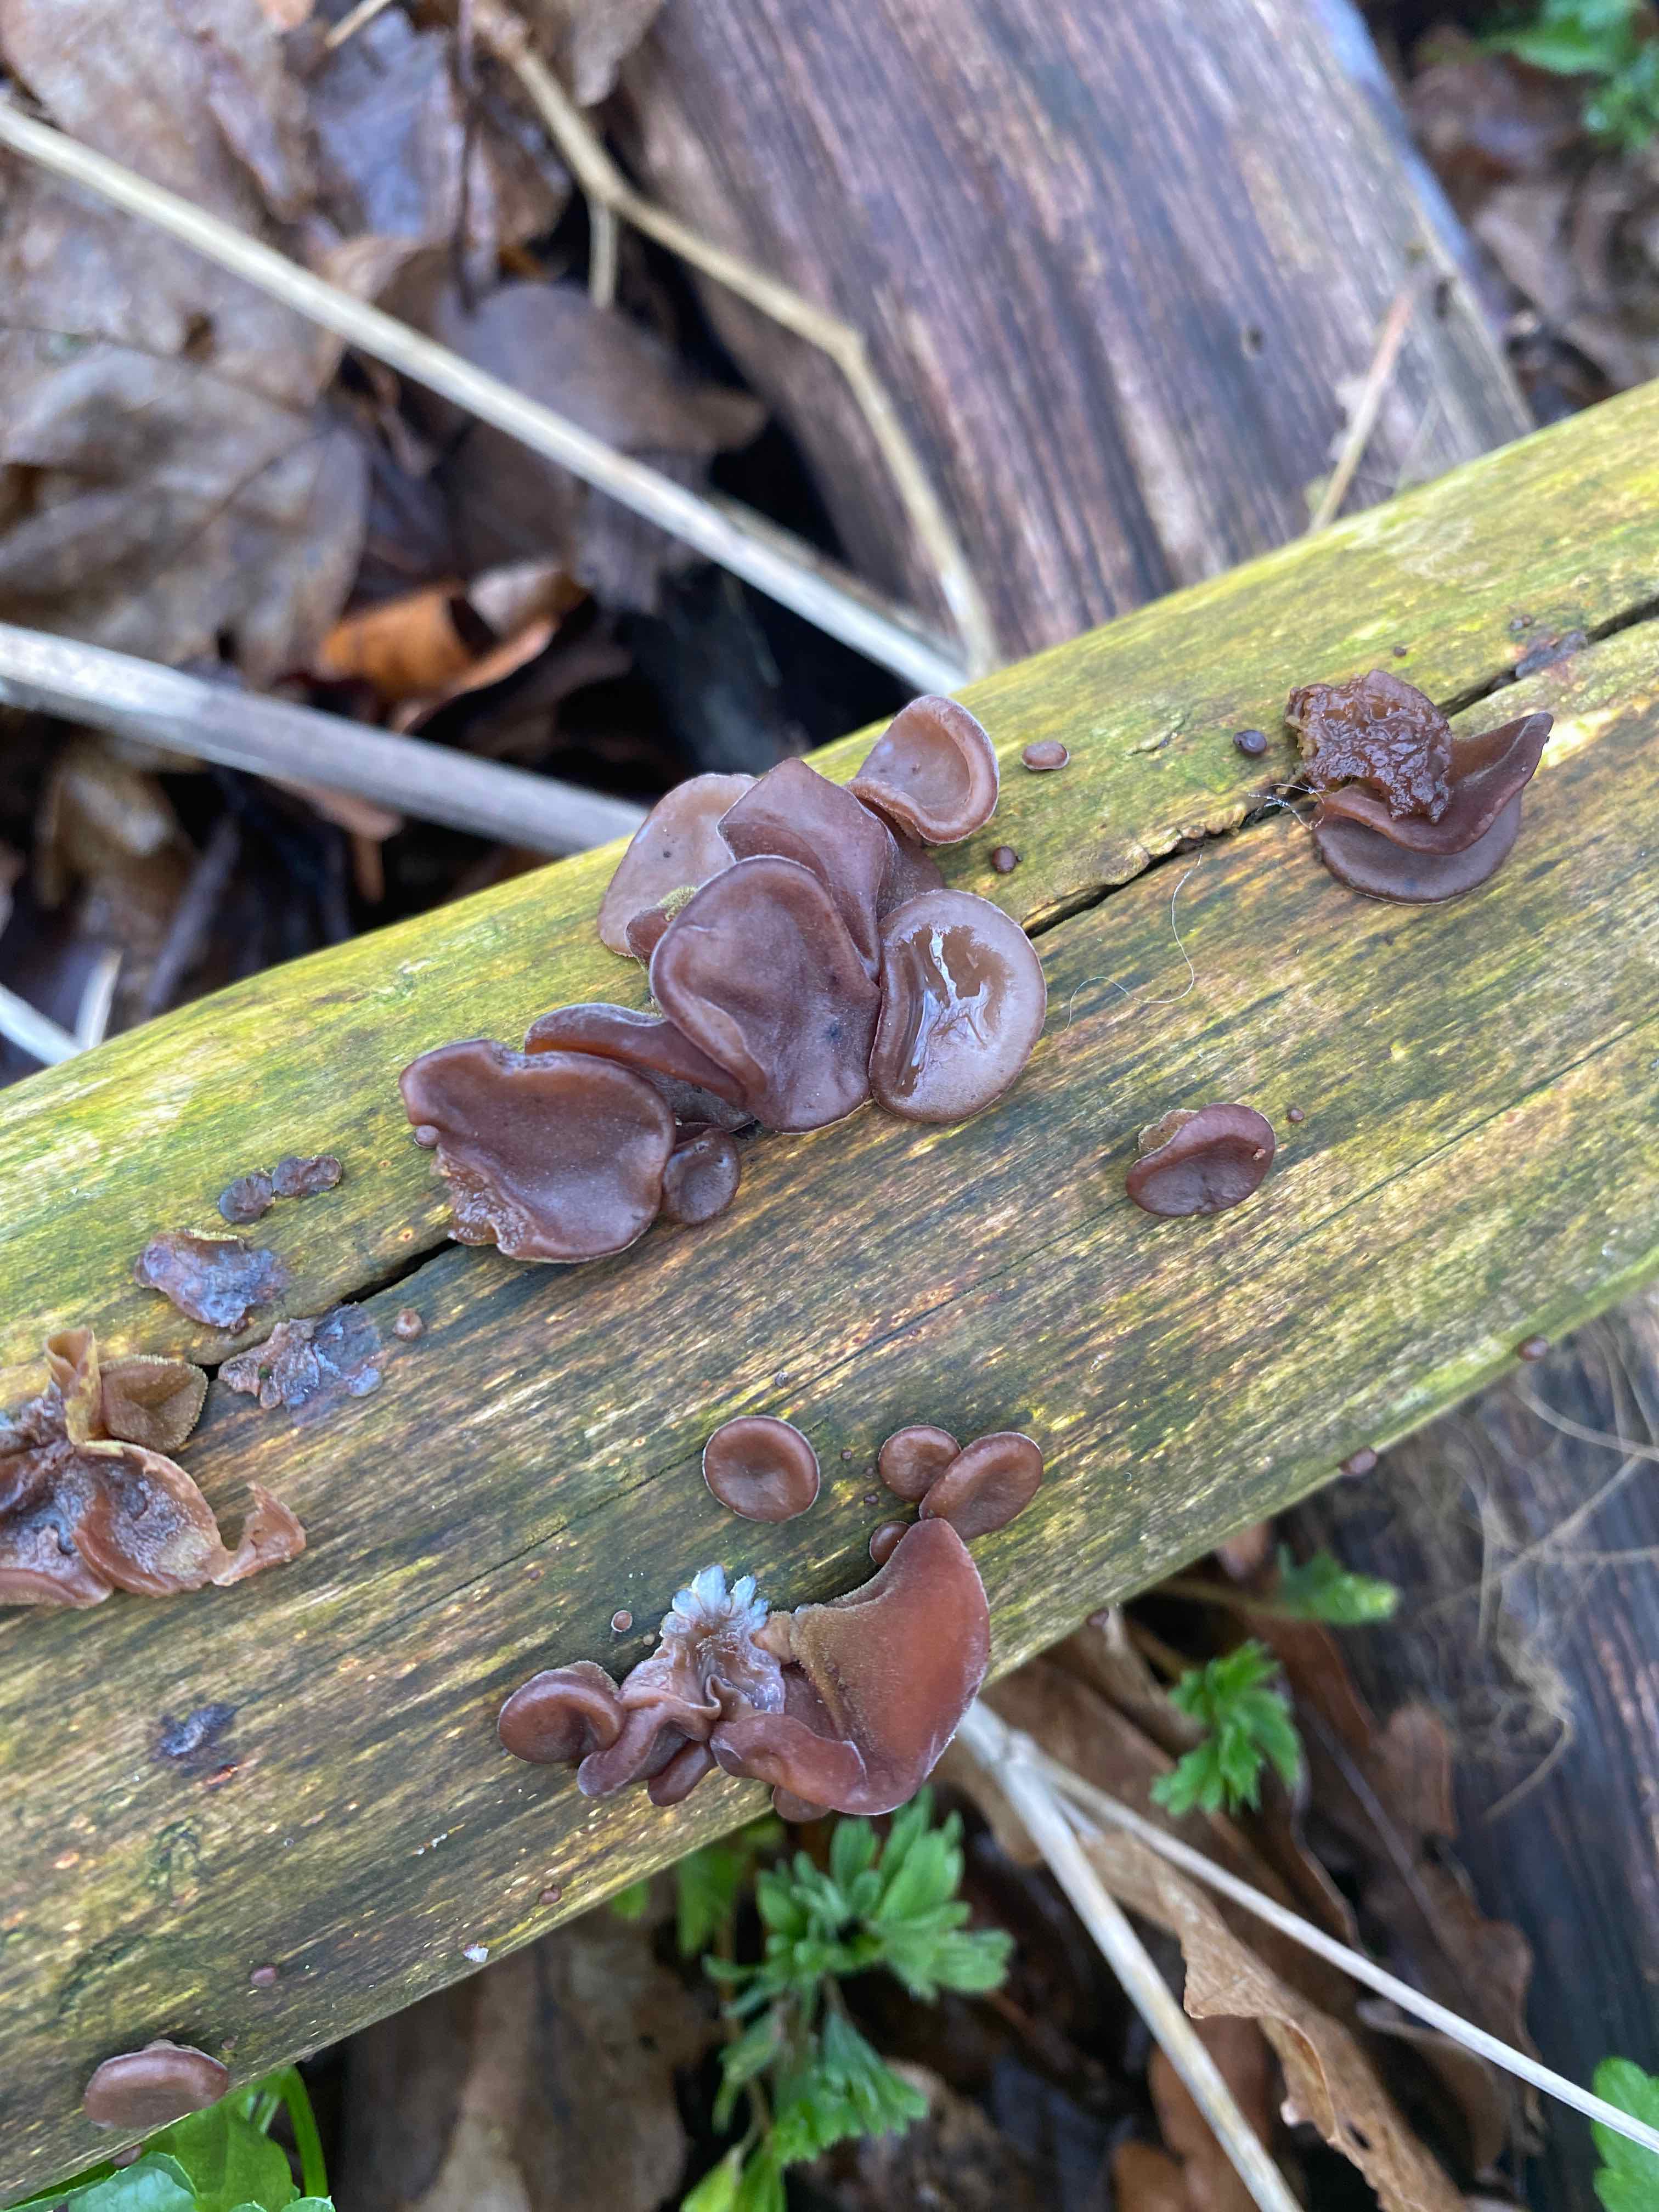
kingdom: Fungi
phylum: Basidiomycota
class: Agaricomycetes
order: Auriculariales
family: Auriculariaceae
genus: Auricularia
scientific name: Auricularia auricula-judae
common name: almindelig judasøre
